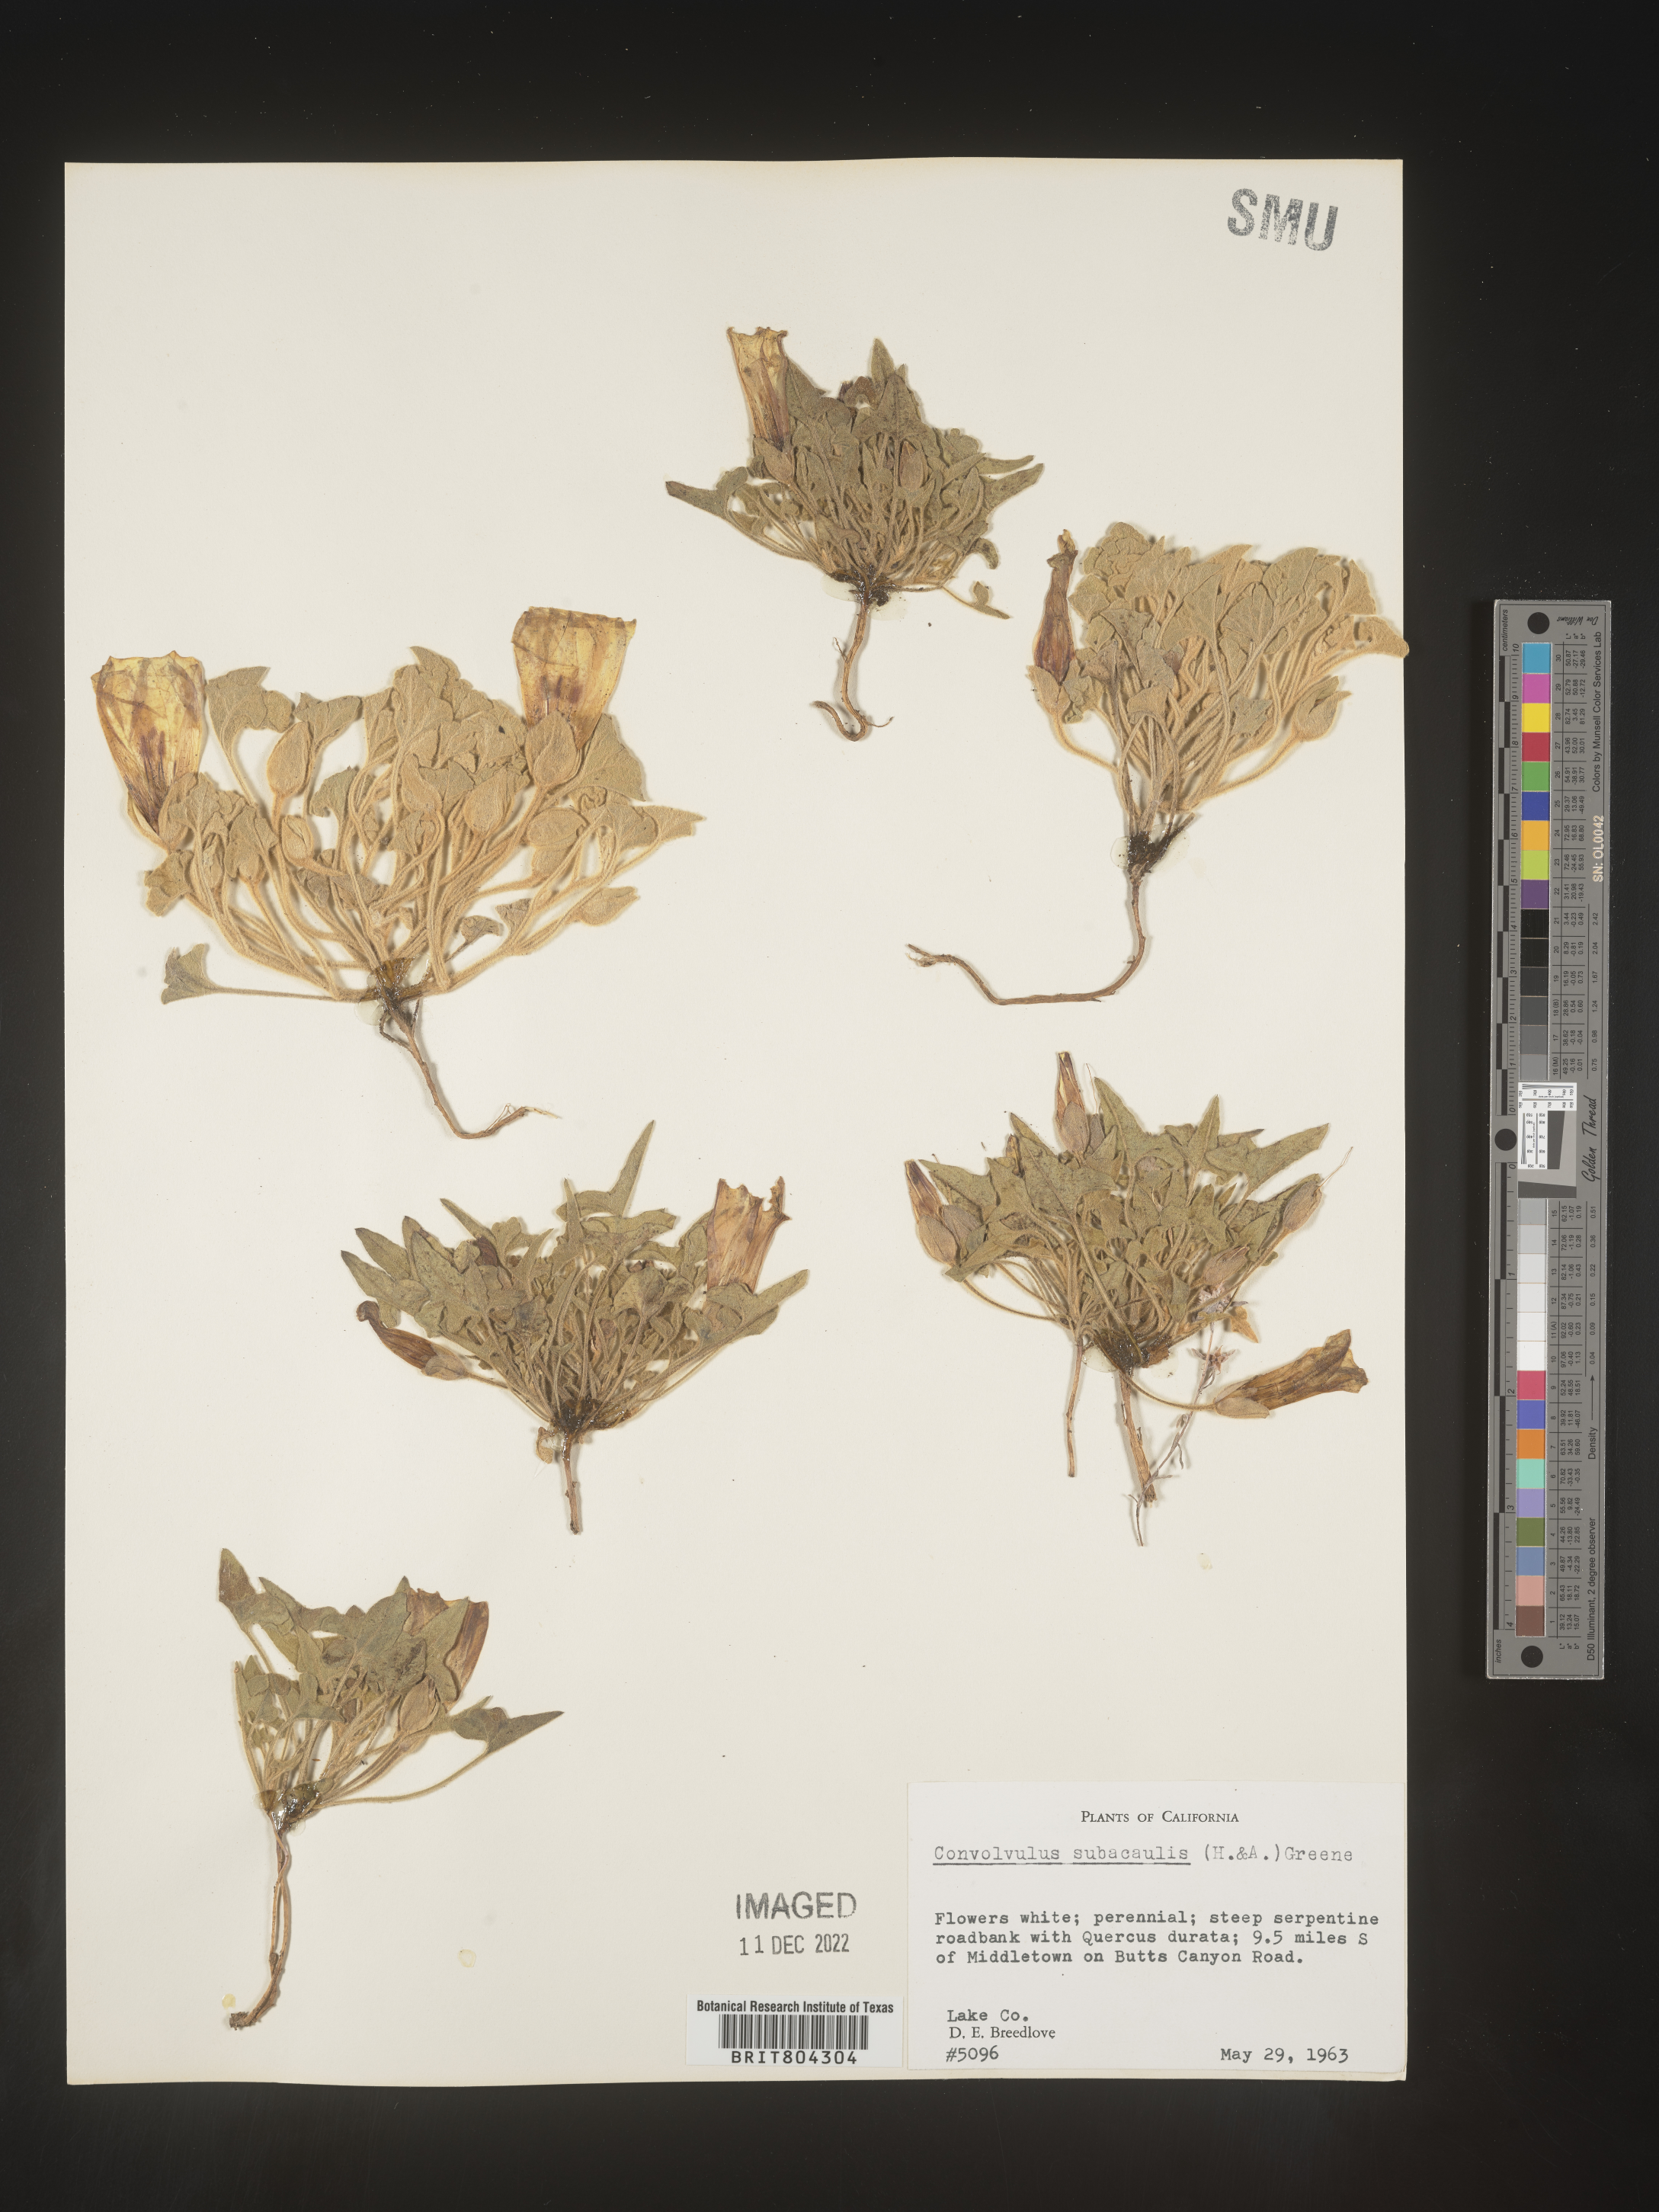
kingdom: Plantae
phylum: Tracheophyta
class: Magnoliopsida
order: Solanales
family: Convolvulaceae
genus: Calystegia
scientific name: Calystegia
